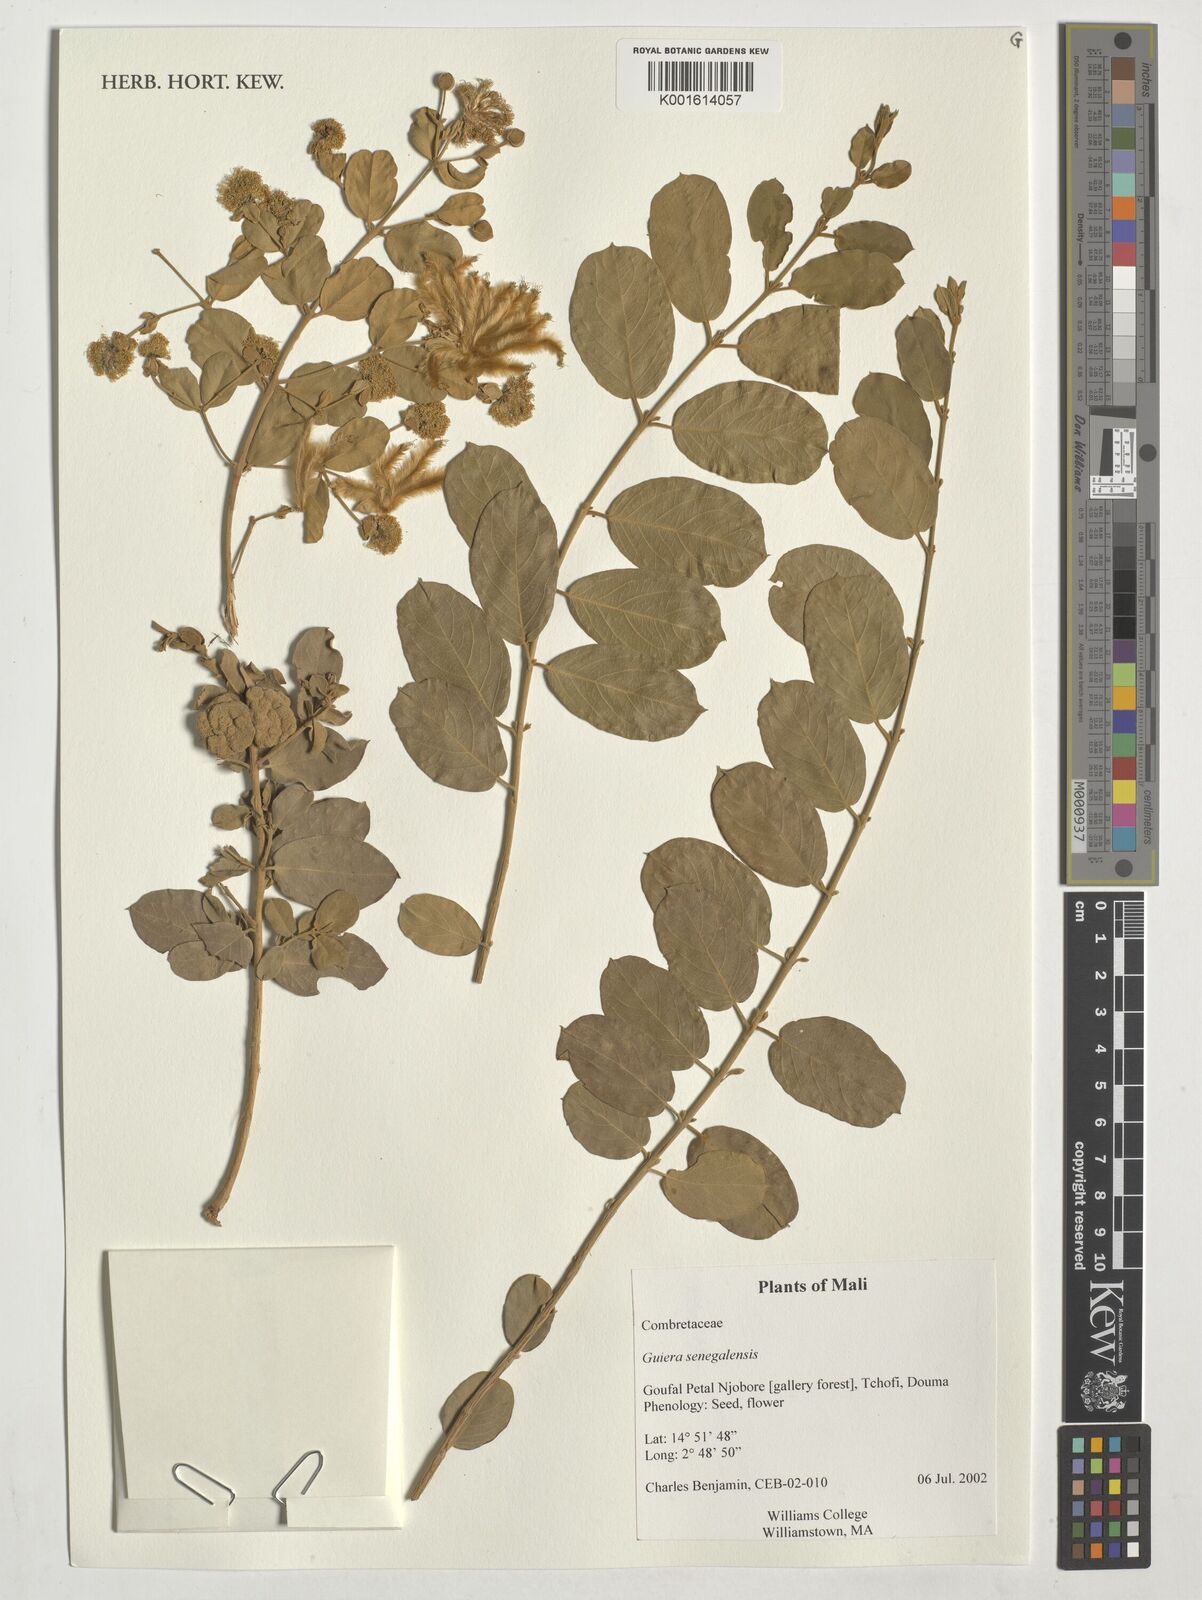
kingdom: Plantae
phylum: Tracheophyta
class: Magnoliopsida
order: Myrtales
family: Combretaceae
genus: Guiera
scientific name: Guiera senegalensis
